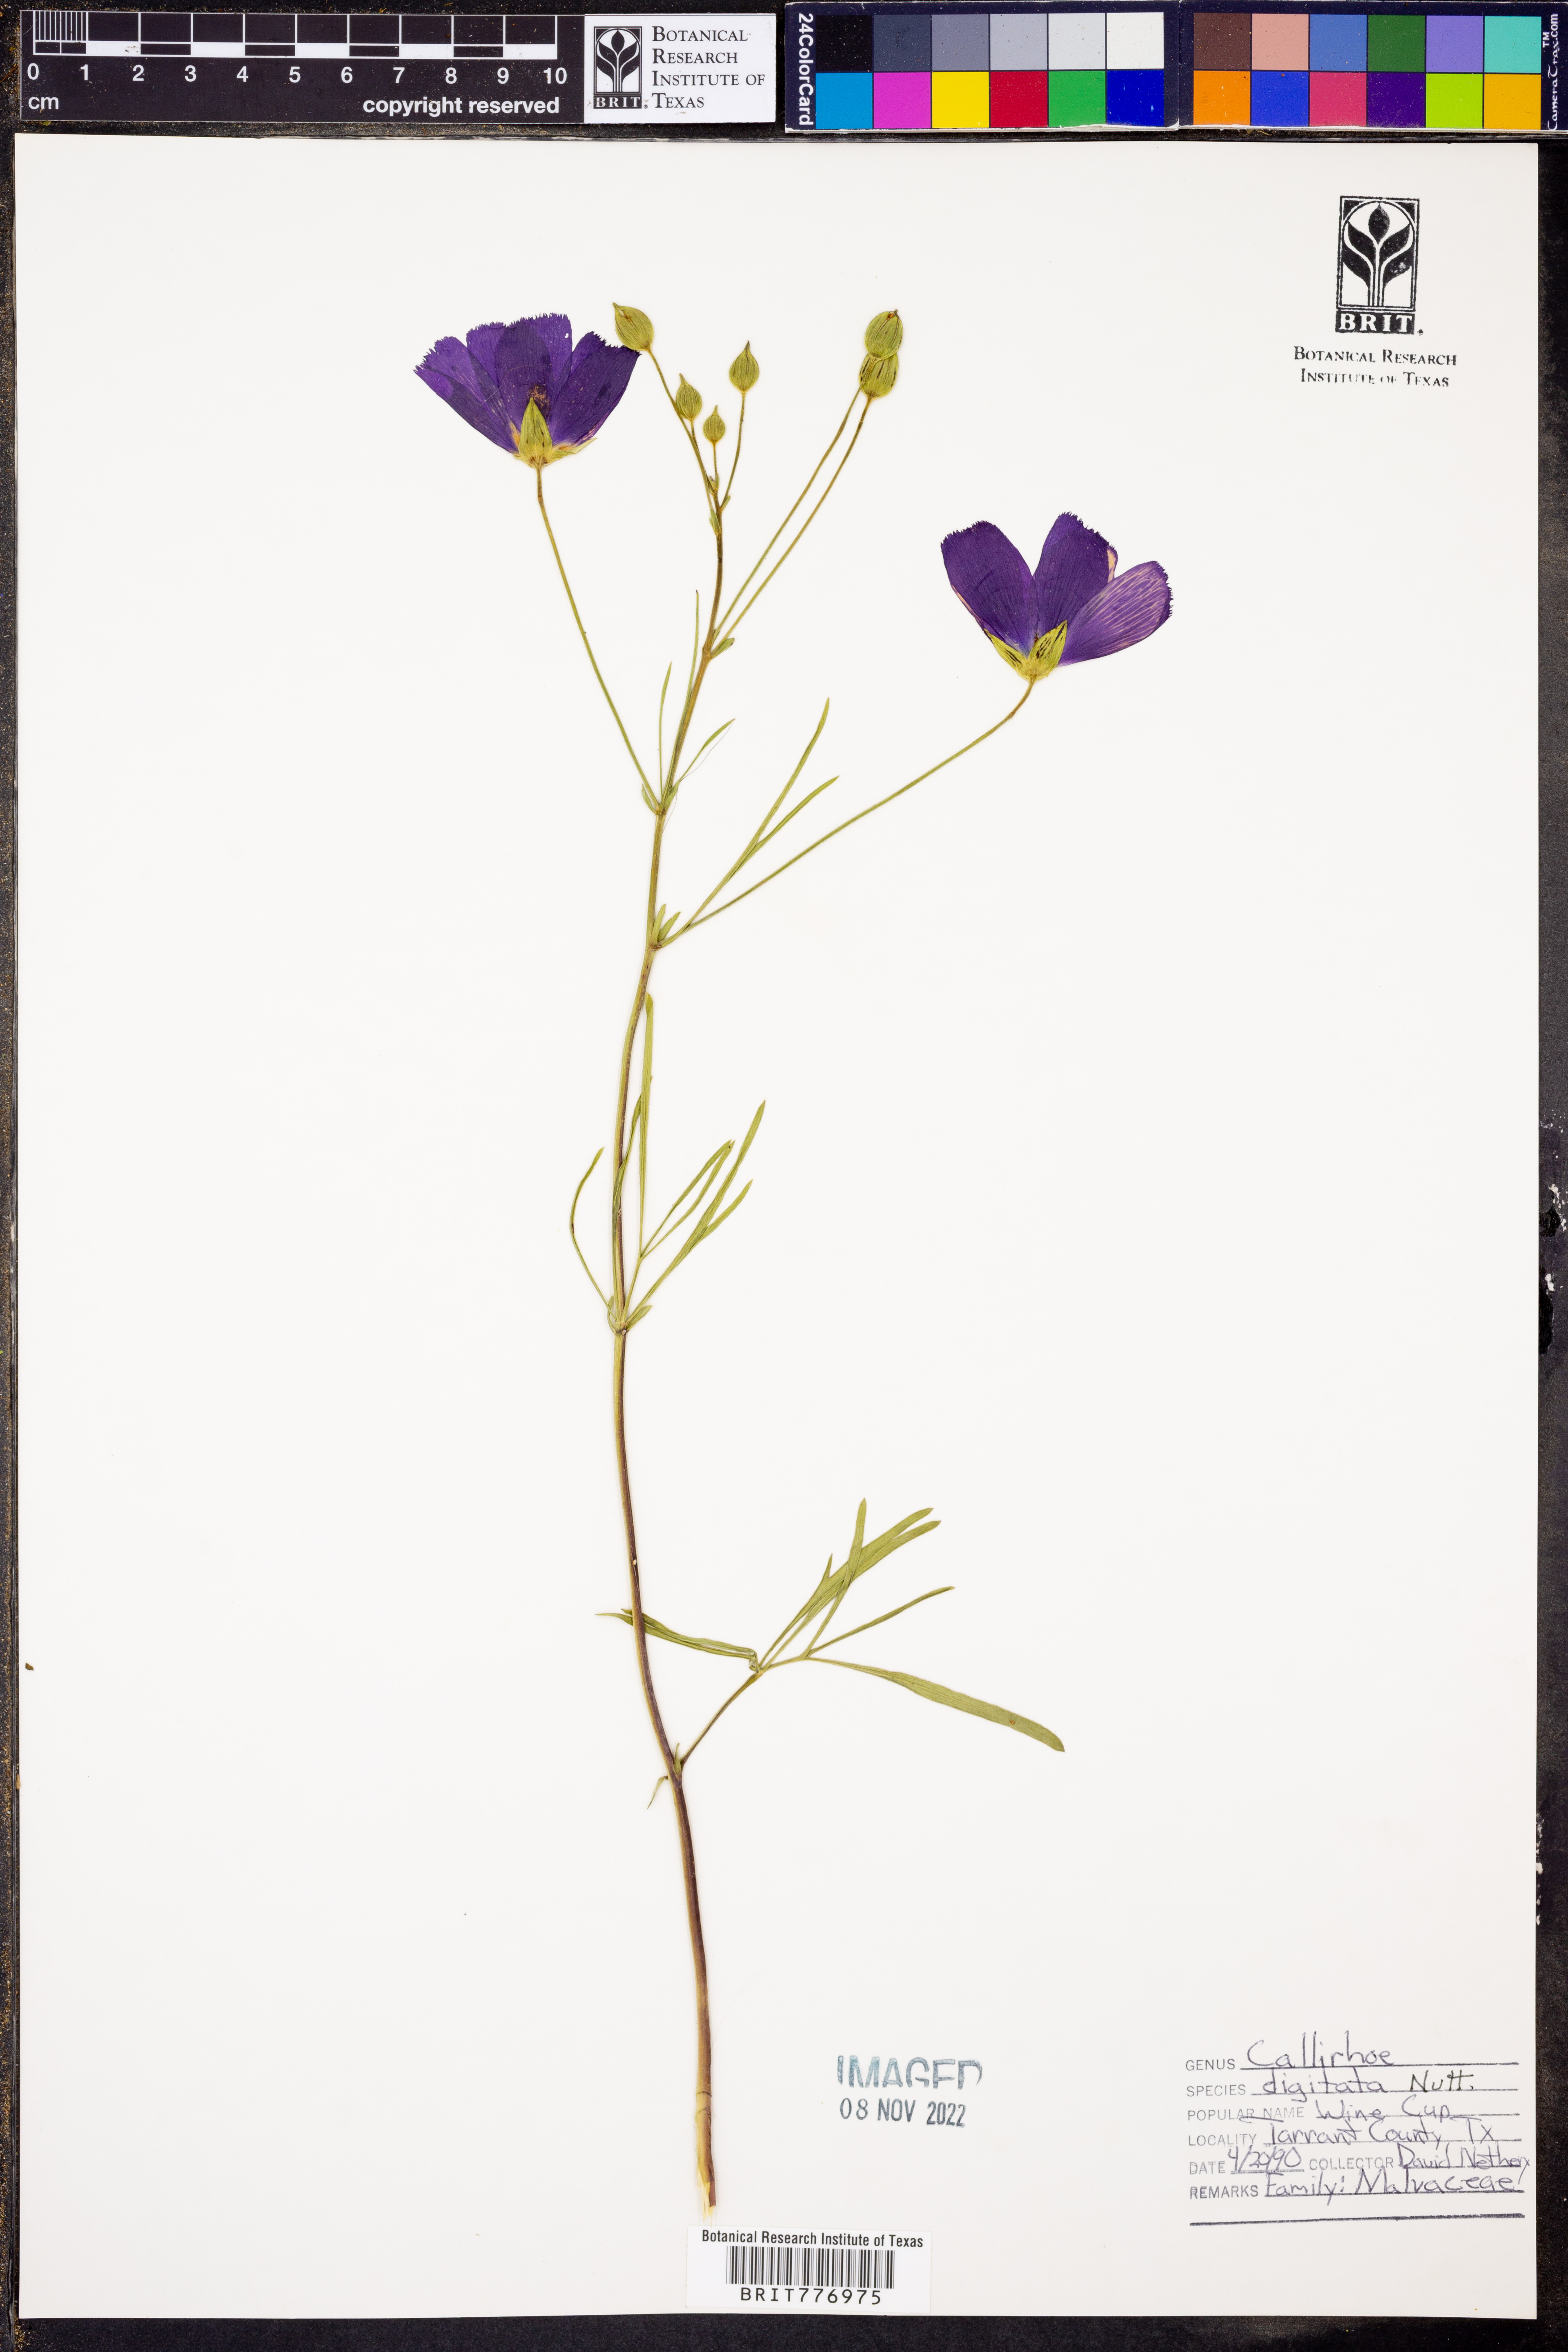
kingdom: Plantae
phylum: Tracheophyta
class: Magnoliopsida
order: Malvales
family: Malvaceae
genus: Callirhoe
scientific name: Callirhoe digitata
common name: Finger poppy-mallow
